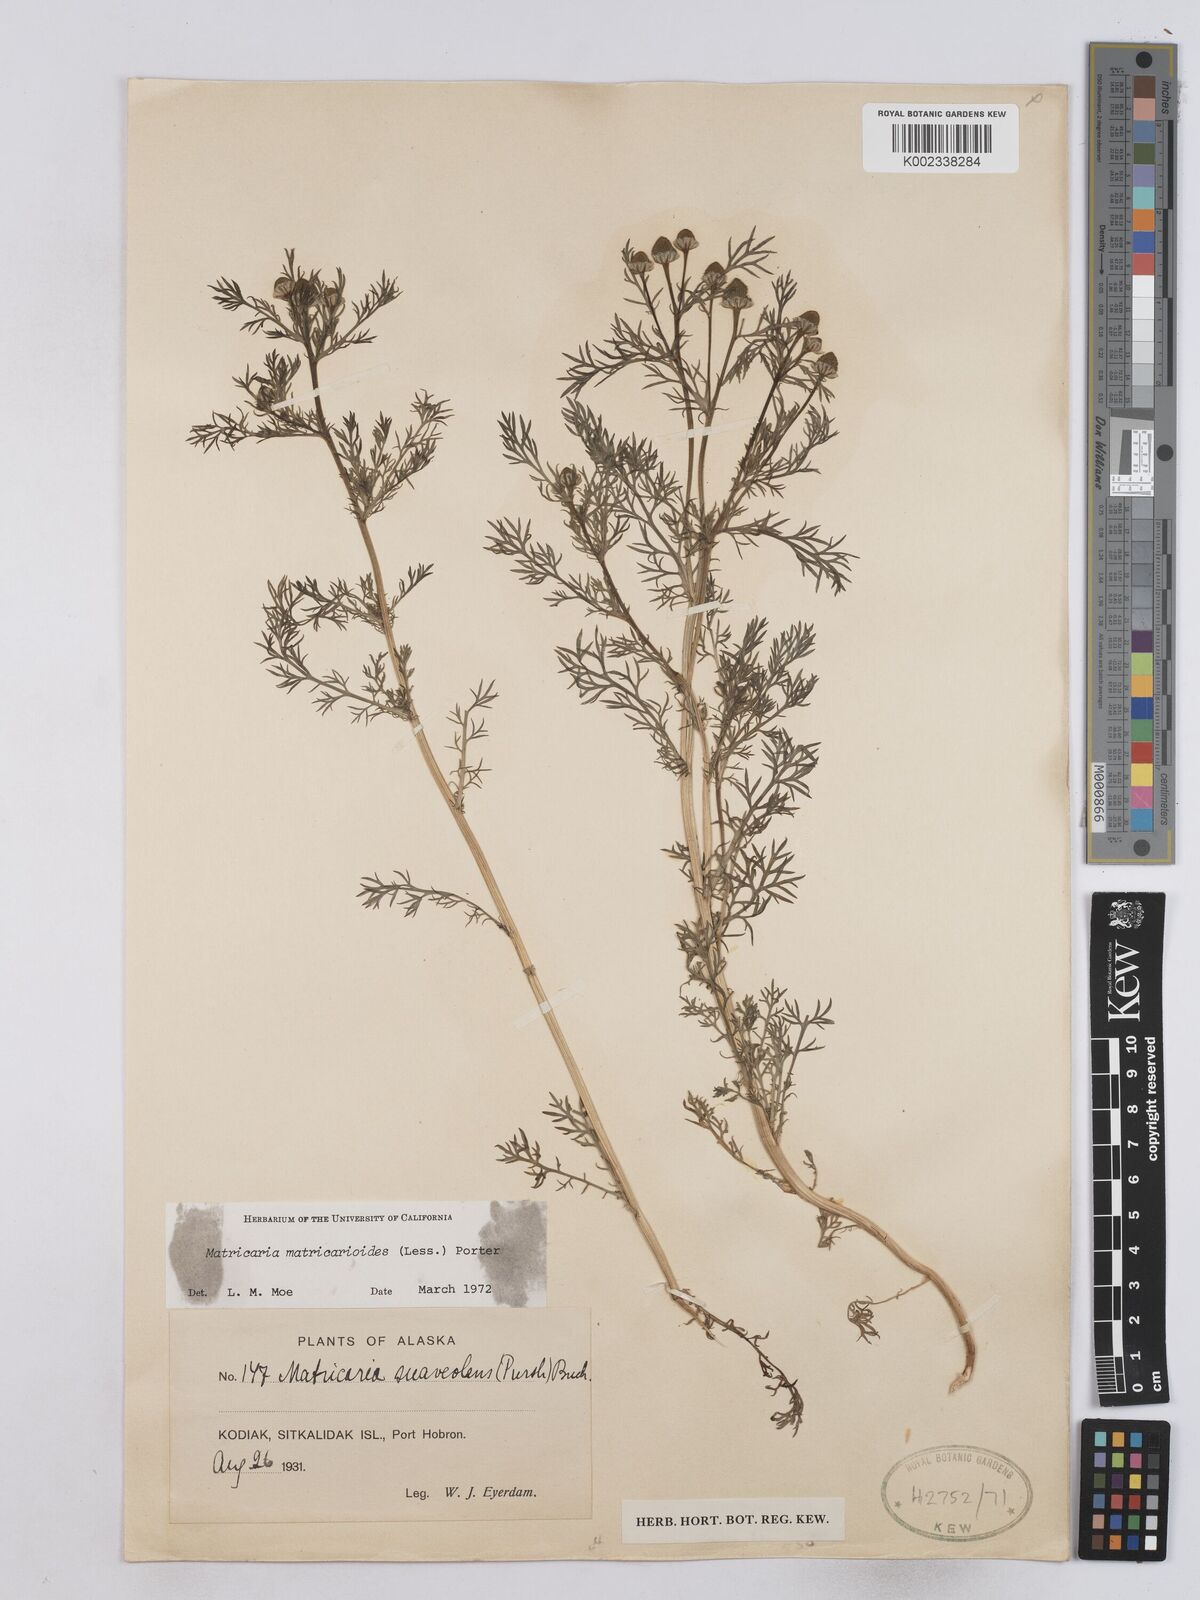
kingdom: Plantae
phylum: Tracheophyta
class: Magnoliopsida
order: Asterales
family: Asteraceae
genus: Matricaria
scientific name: Matricaria discoidea
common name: Disc mayweed
